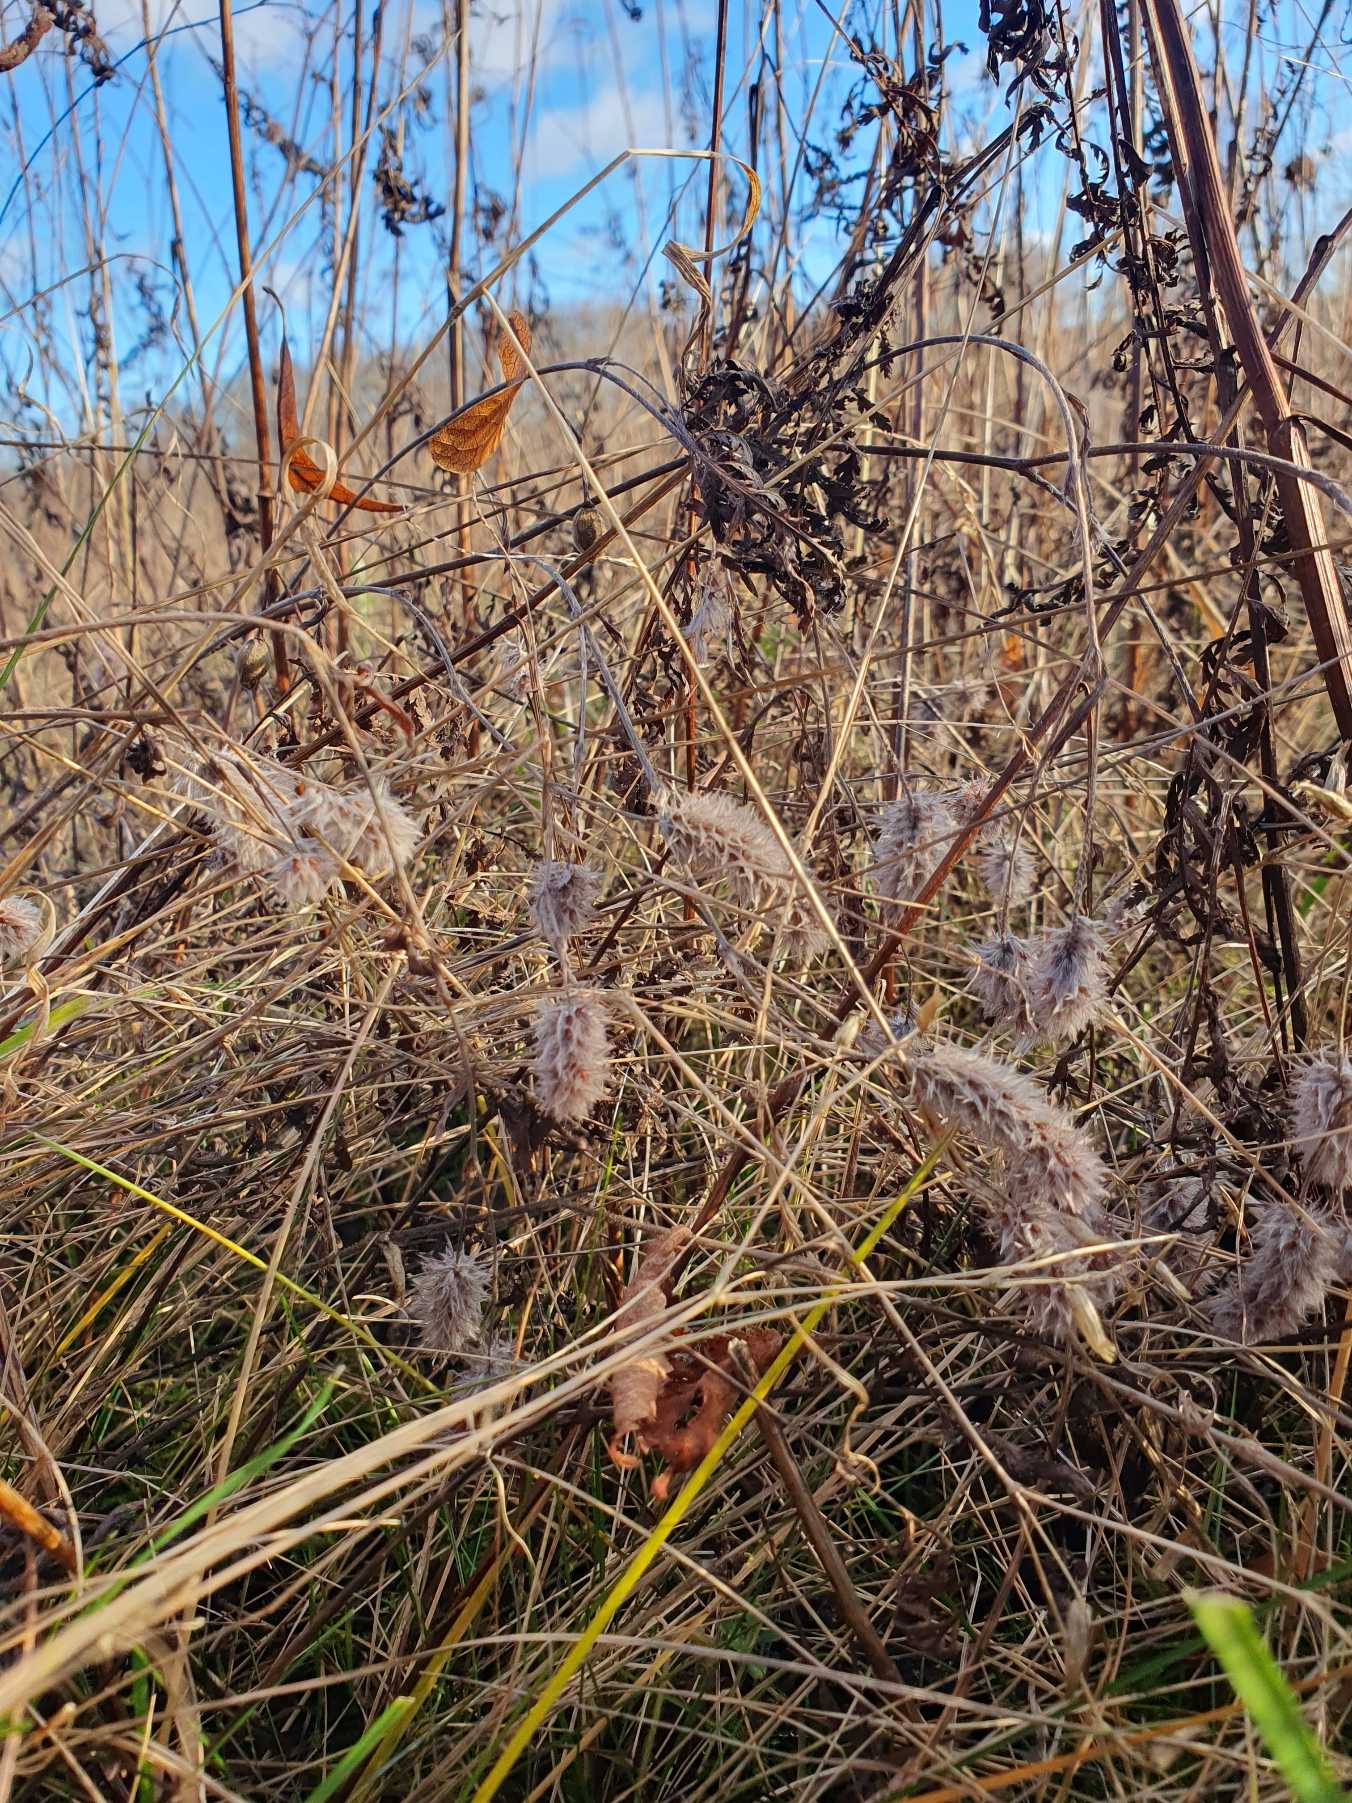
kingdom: Plantae
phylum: Tracheophyta
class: Magnoliopsida
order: Fabales
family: Fabaceae
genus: Trifolium
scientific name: Trifolium arvense
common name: Hare-kløver
